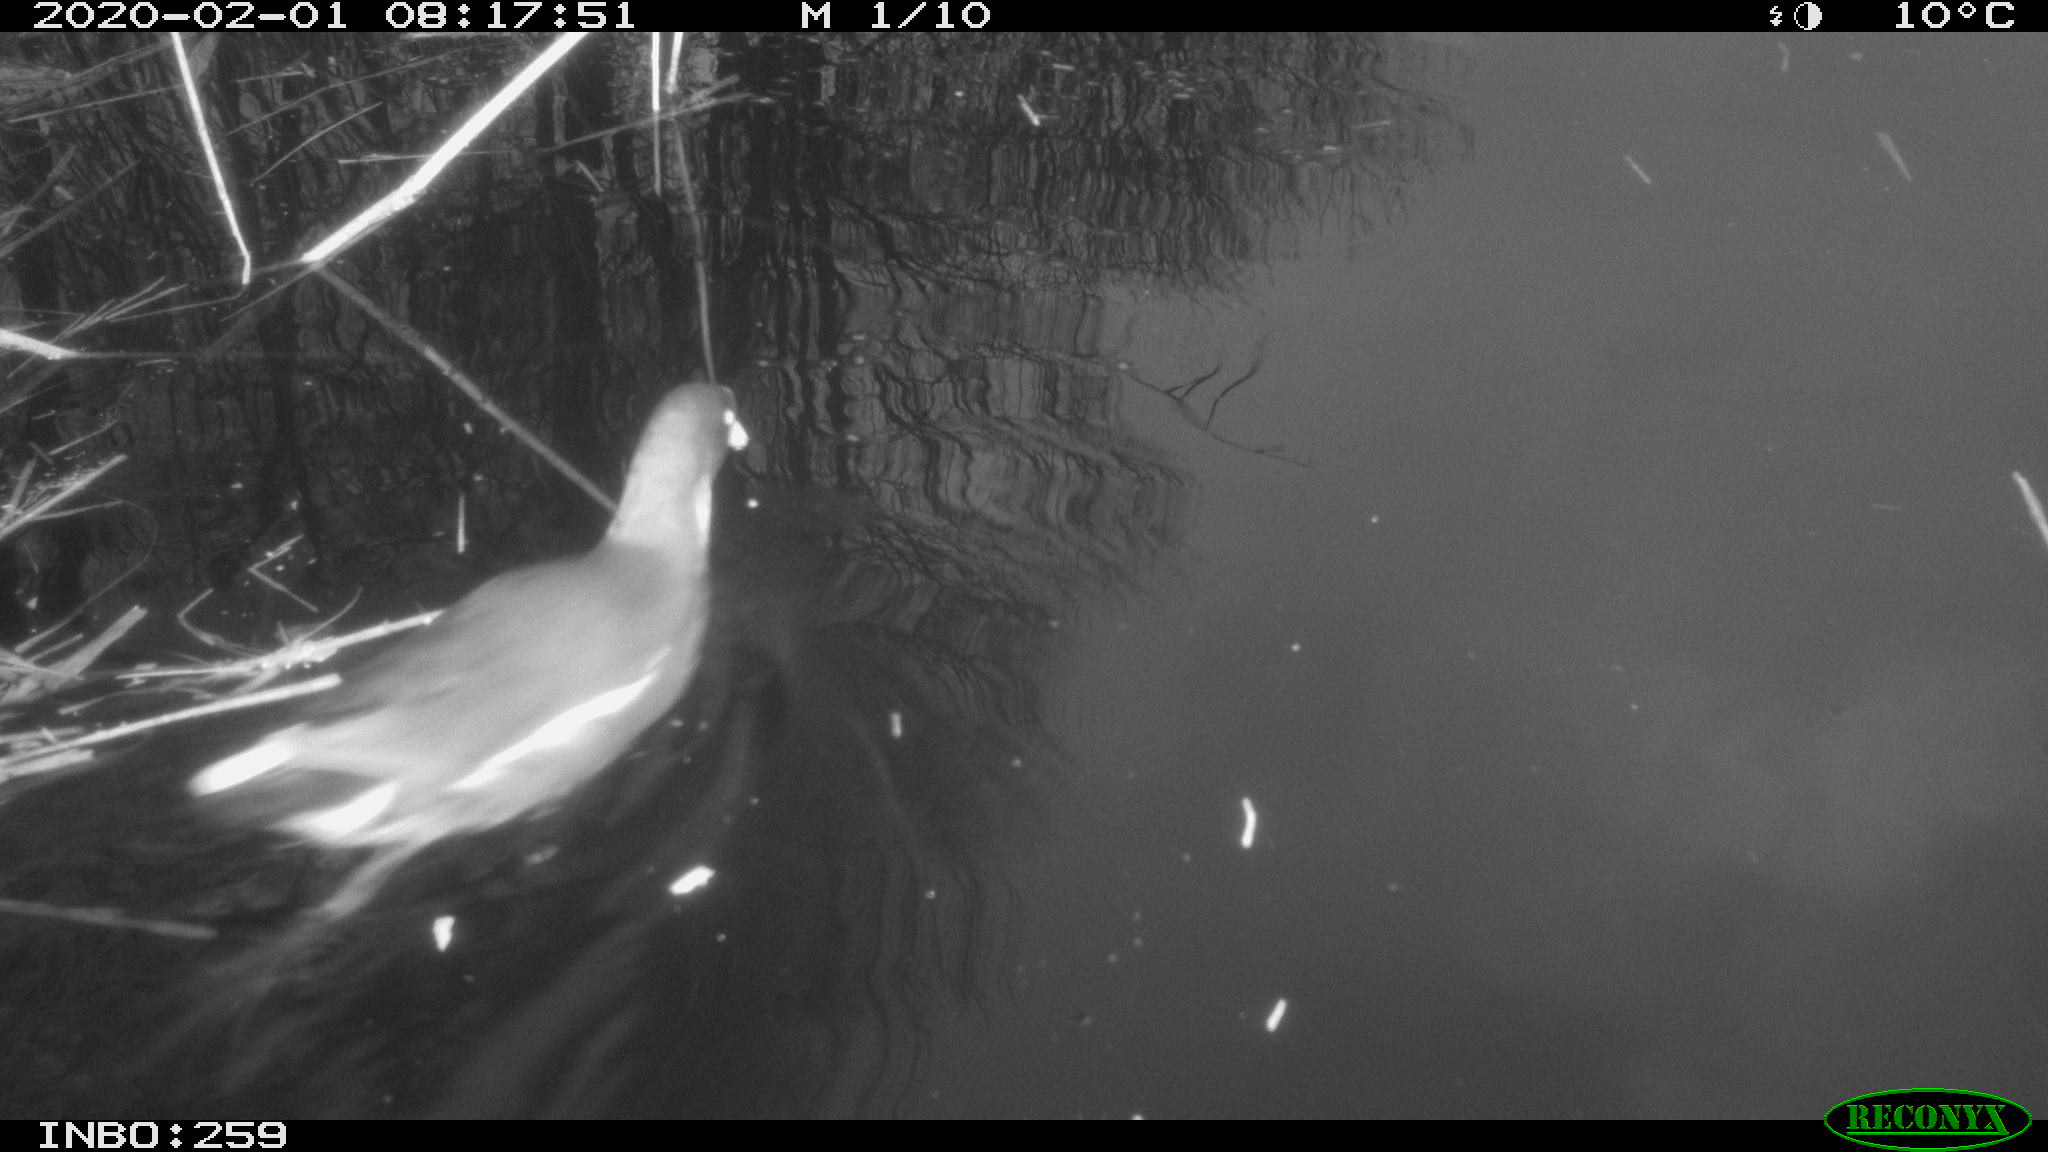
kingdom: Animalia
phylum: Chordata
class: Aves
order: Gruiformes
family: Rallidae
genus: Gallinula
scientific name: Gallinula chloropus
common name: Common moorhen
